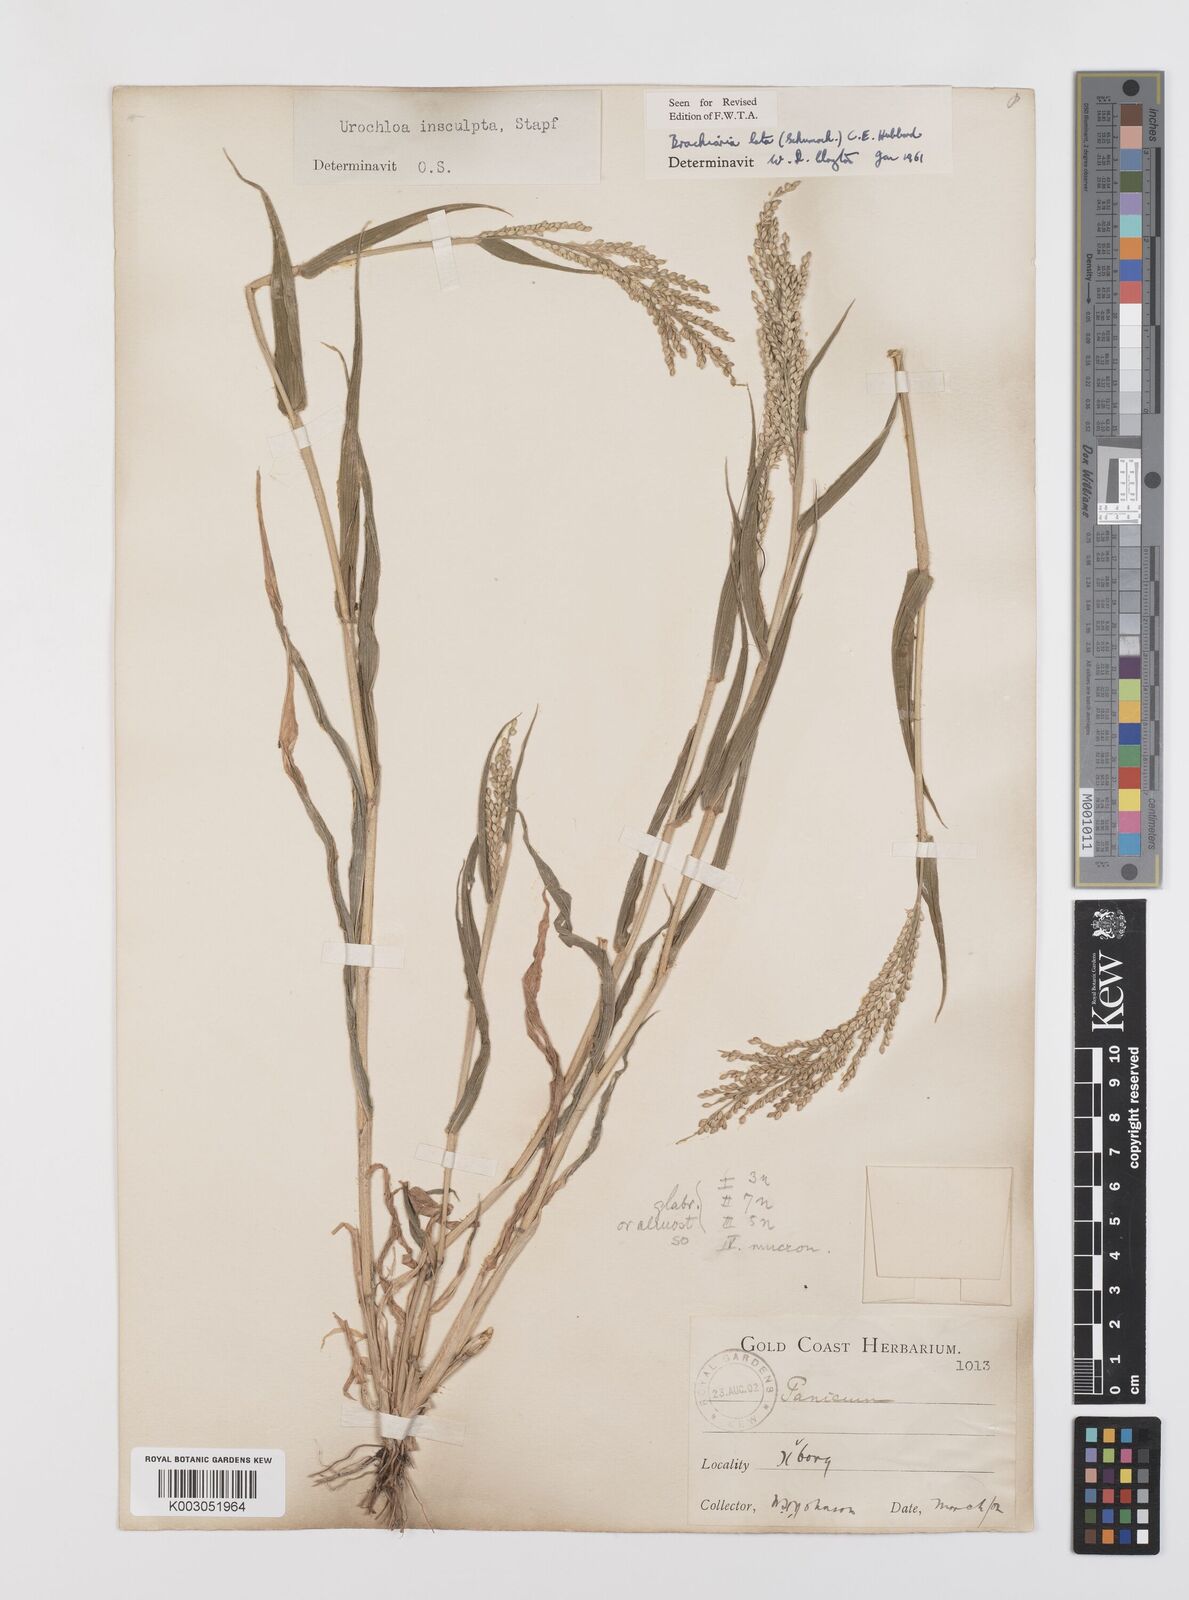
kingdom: Plantae
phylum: Tracheophyta
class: Liliopsida
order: Poales
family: Poaceae
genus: Urochloa
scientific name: Urochloa lata
